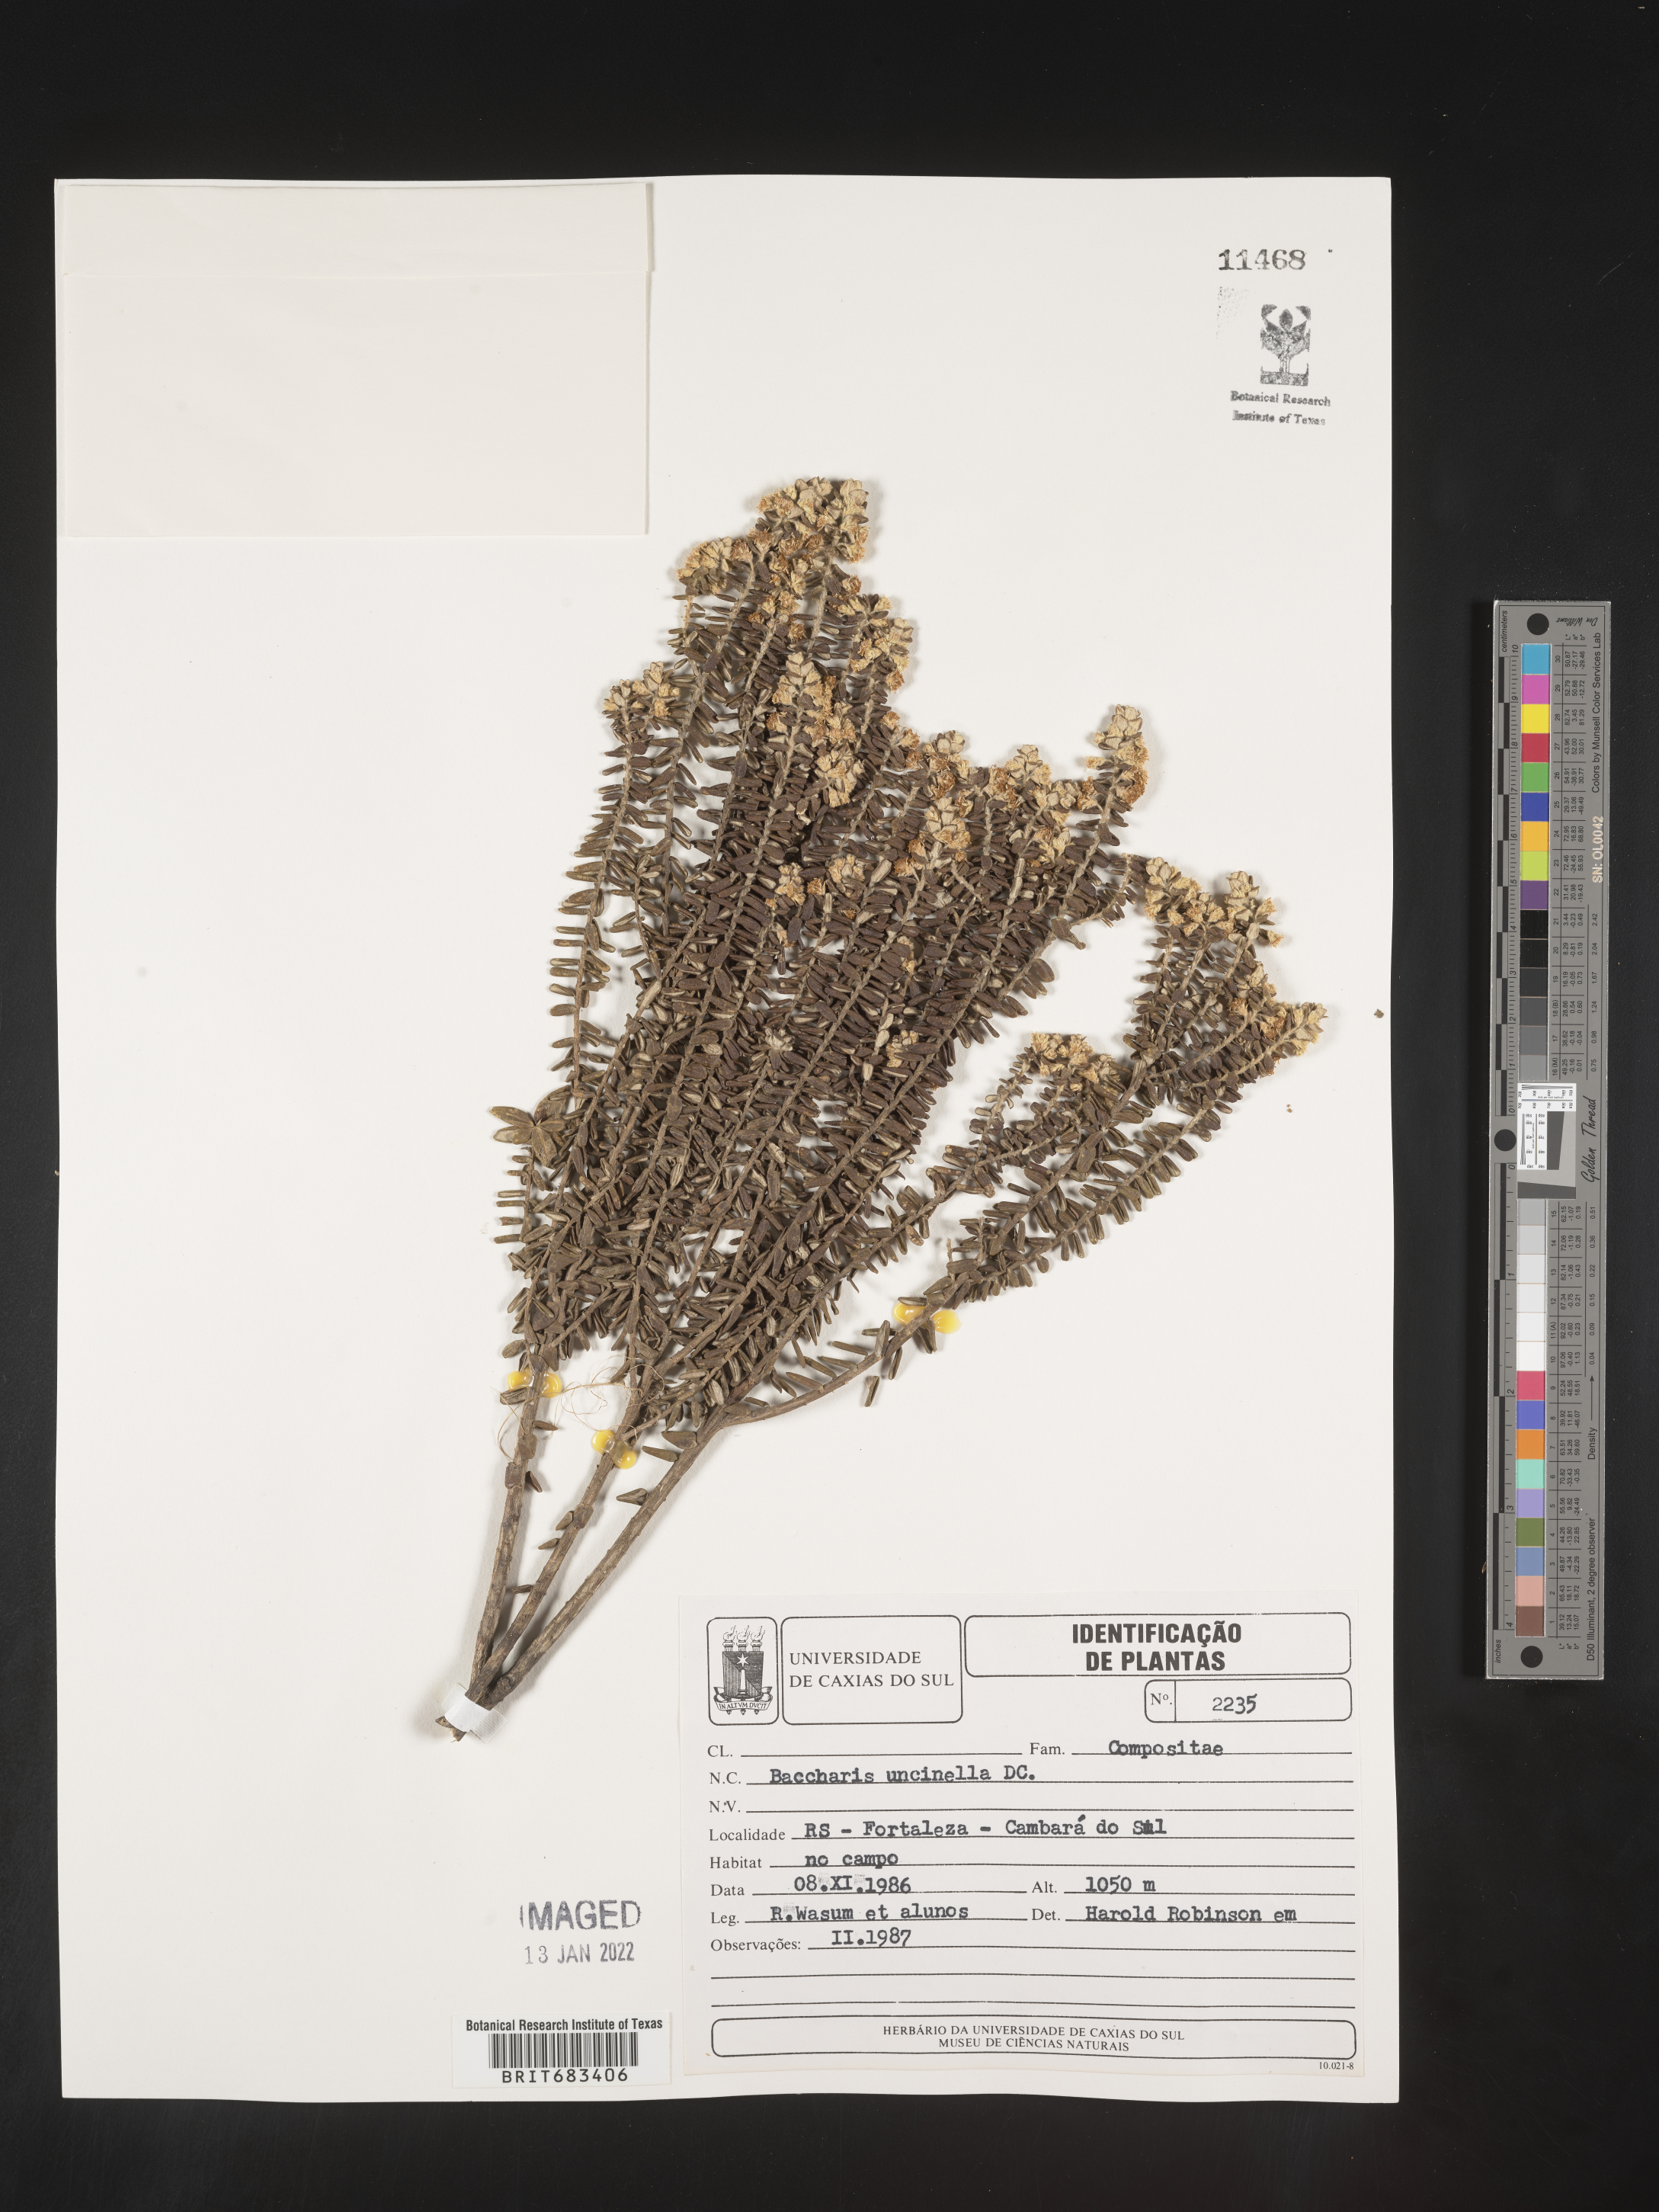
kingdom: Plantae
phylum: Tracheophyta
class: Magnoliopsida
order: Asterales
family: Asteraceae
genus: Baccharis
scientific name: Baccharis
